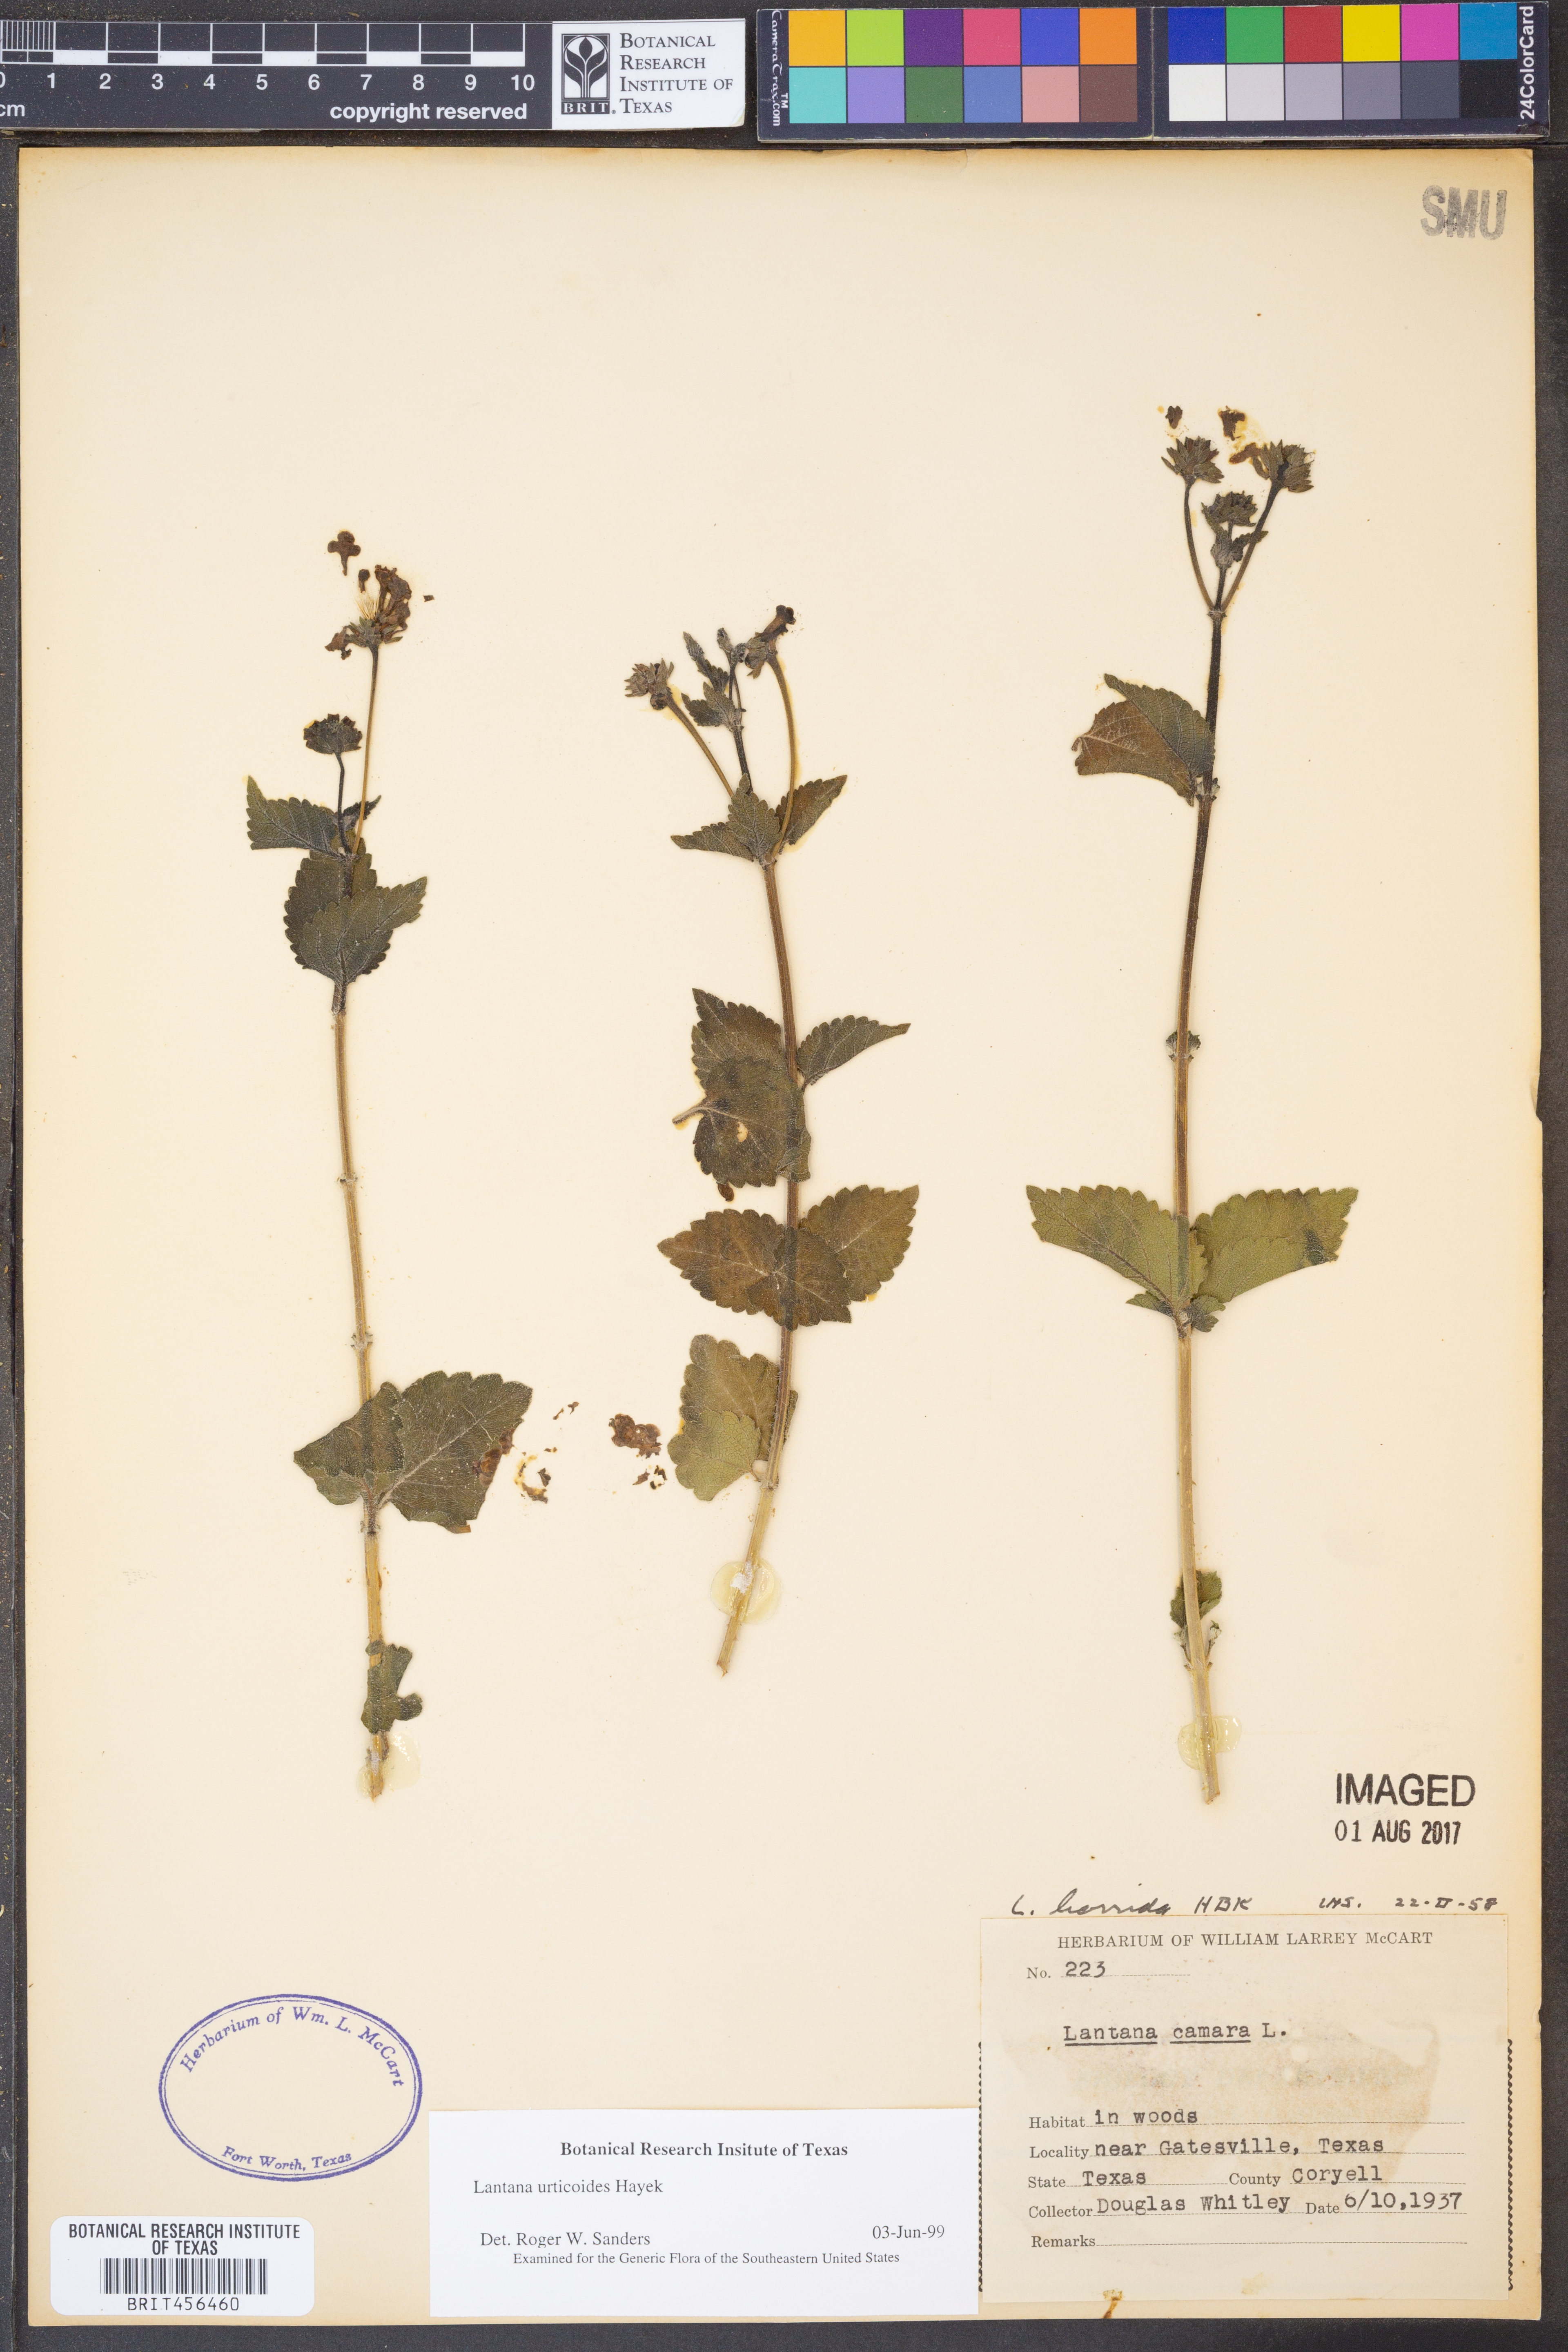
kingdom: Plantae
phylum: Tracheophyta
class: Magnoliopsida
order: Lamiales
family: Verbenaceae
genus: Lantana
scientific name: Lantana urticoides
